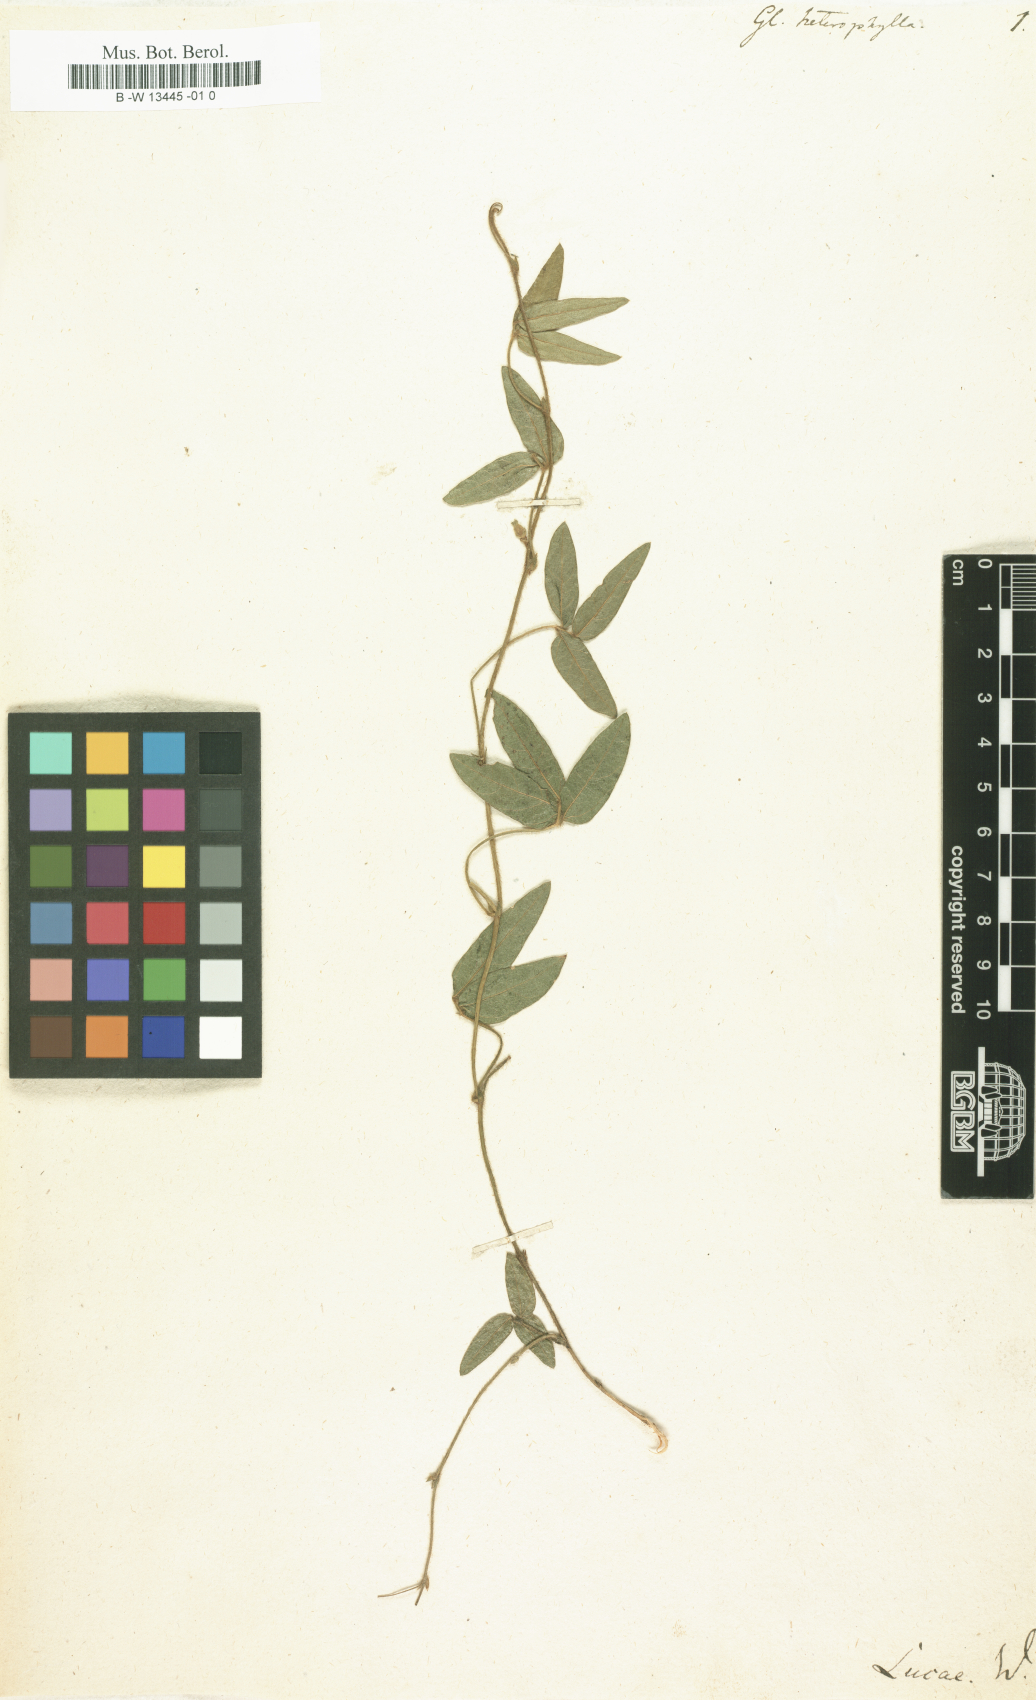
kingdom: Plantae
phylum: Tracheophyta
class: Magnoliopsida
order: Fabales
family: Fabaceae
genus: Rhynchosia
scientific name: Rhynchosia capensis
